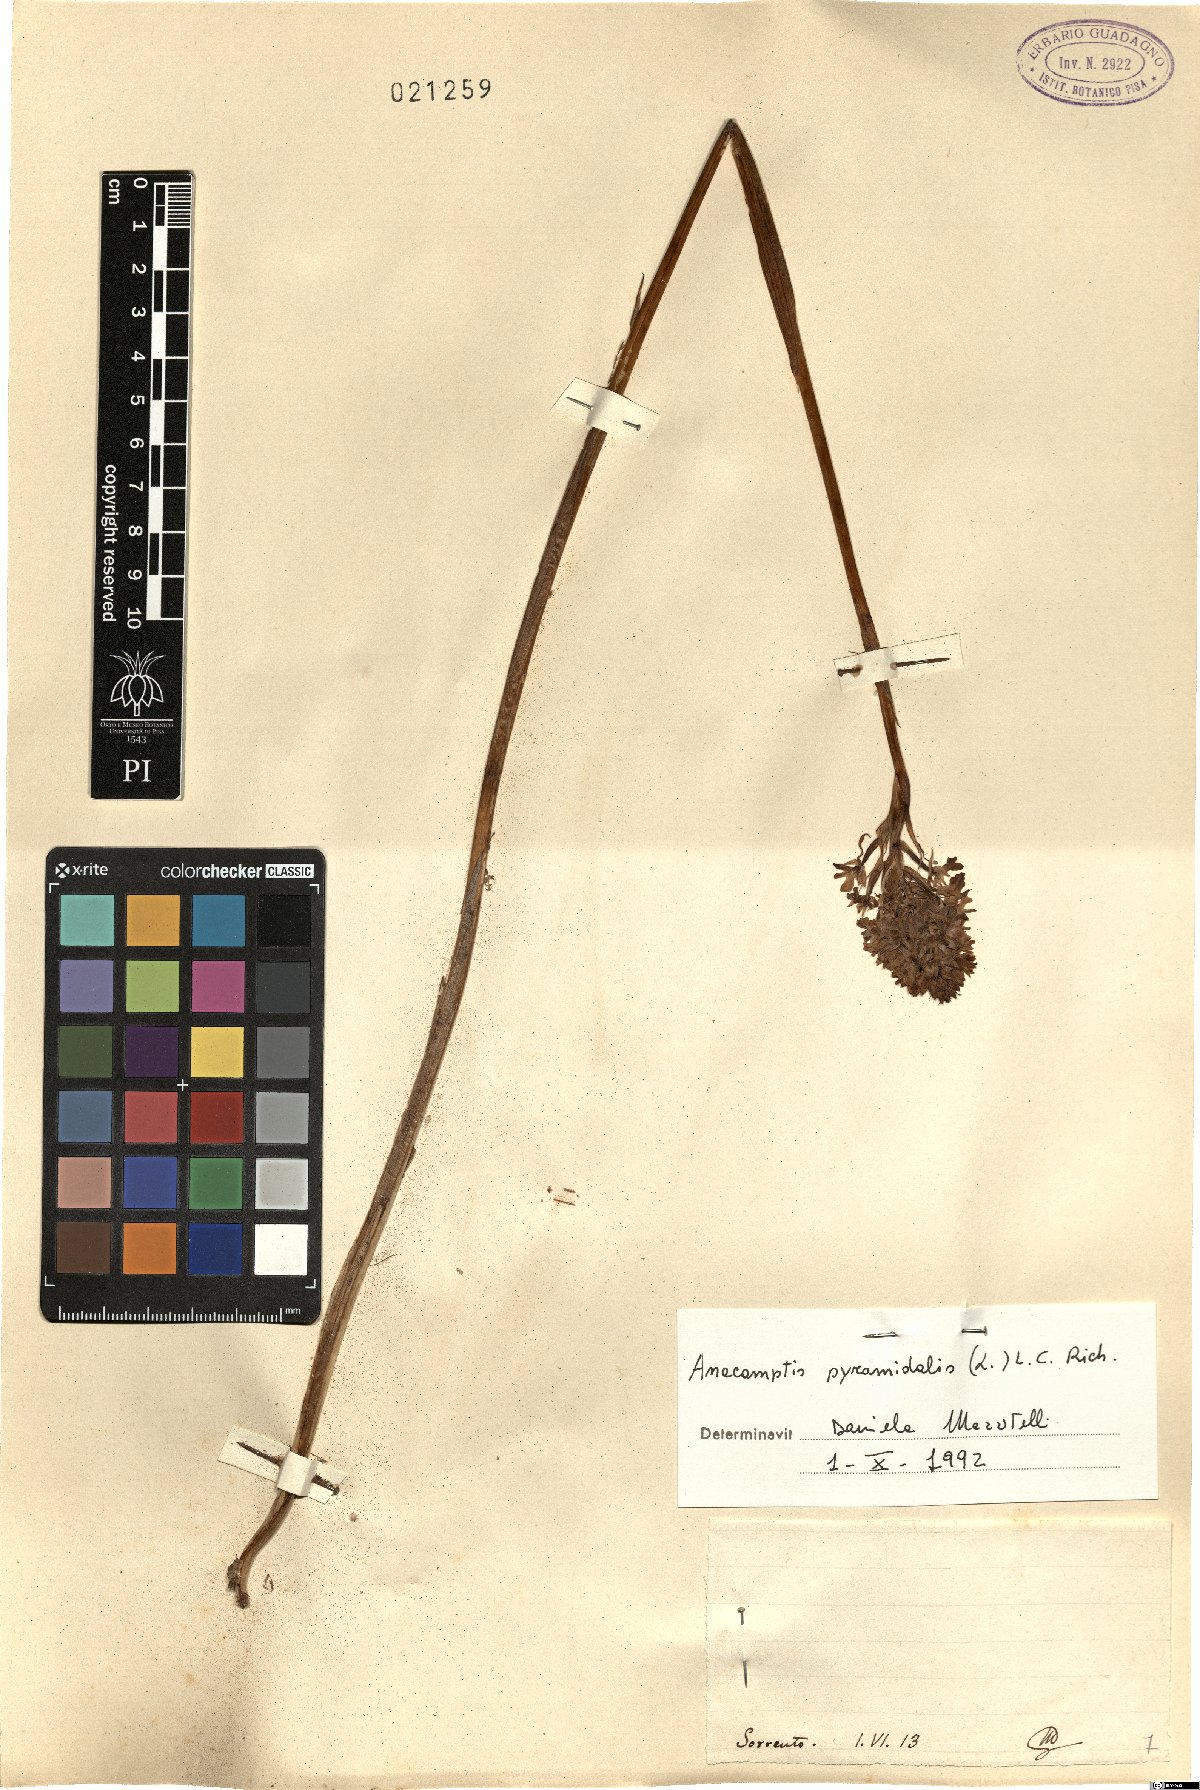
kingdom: Plantae
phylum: Tracheophyta
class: Liliopsida
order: Asparagales
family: Orchidaceae
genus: Anacamptis
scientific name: Anacamptis pyramidalis
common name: Pyramidal orchid
